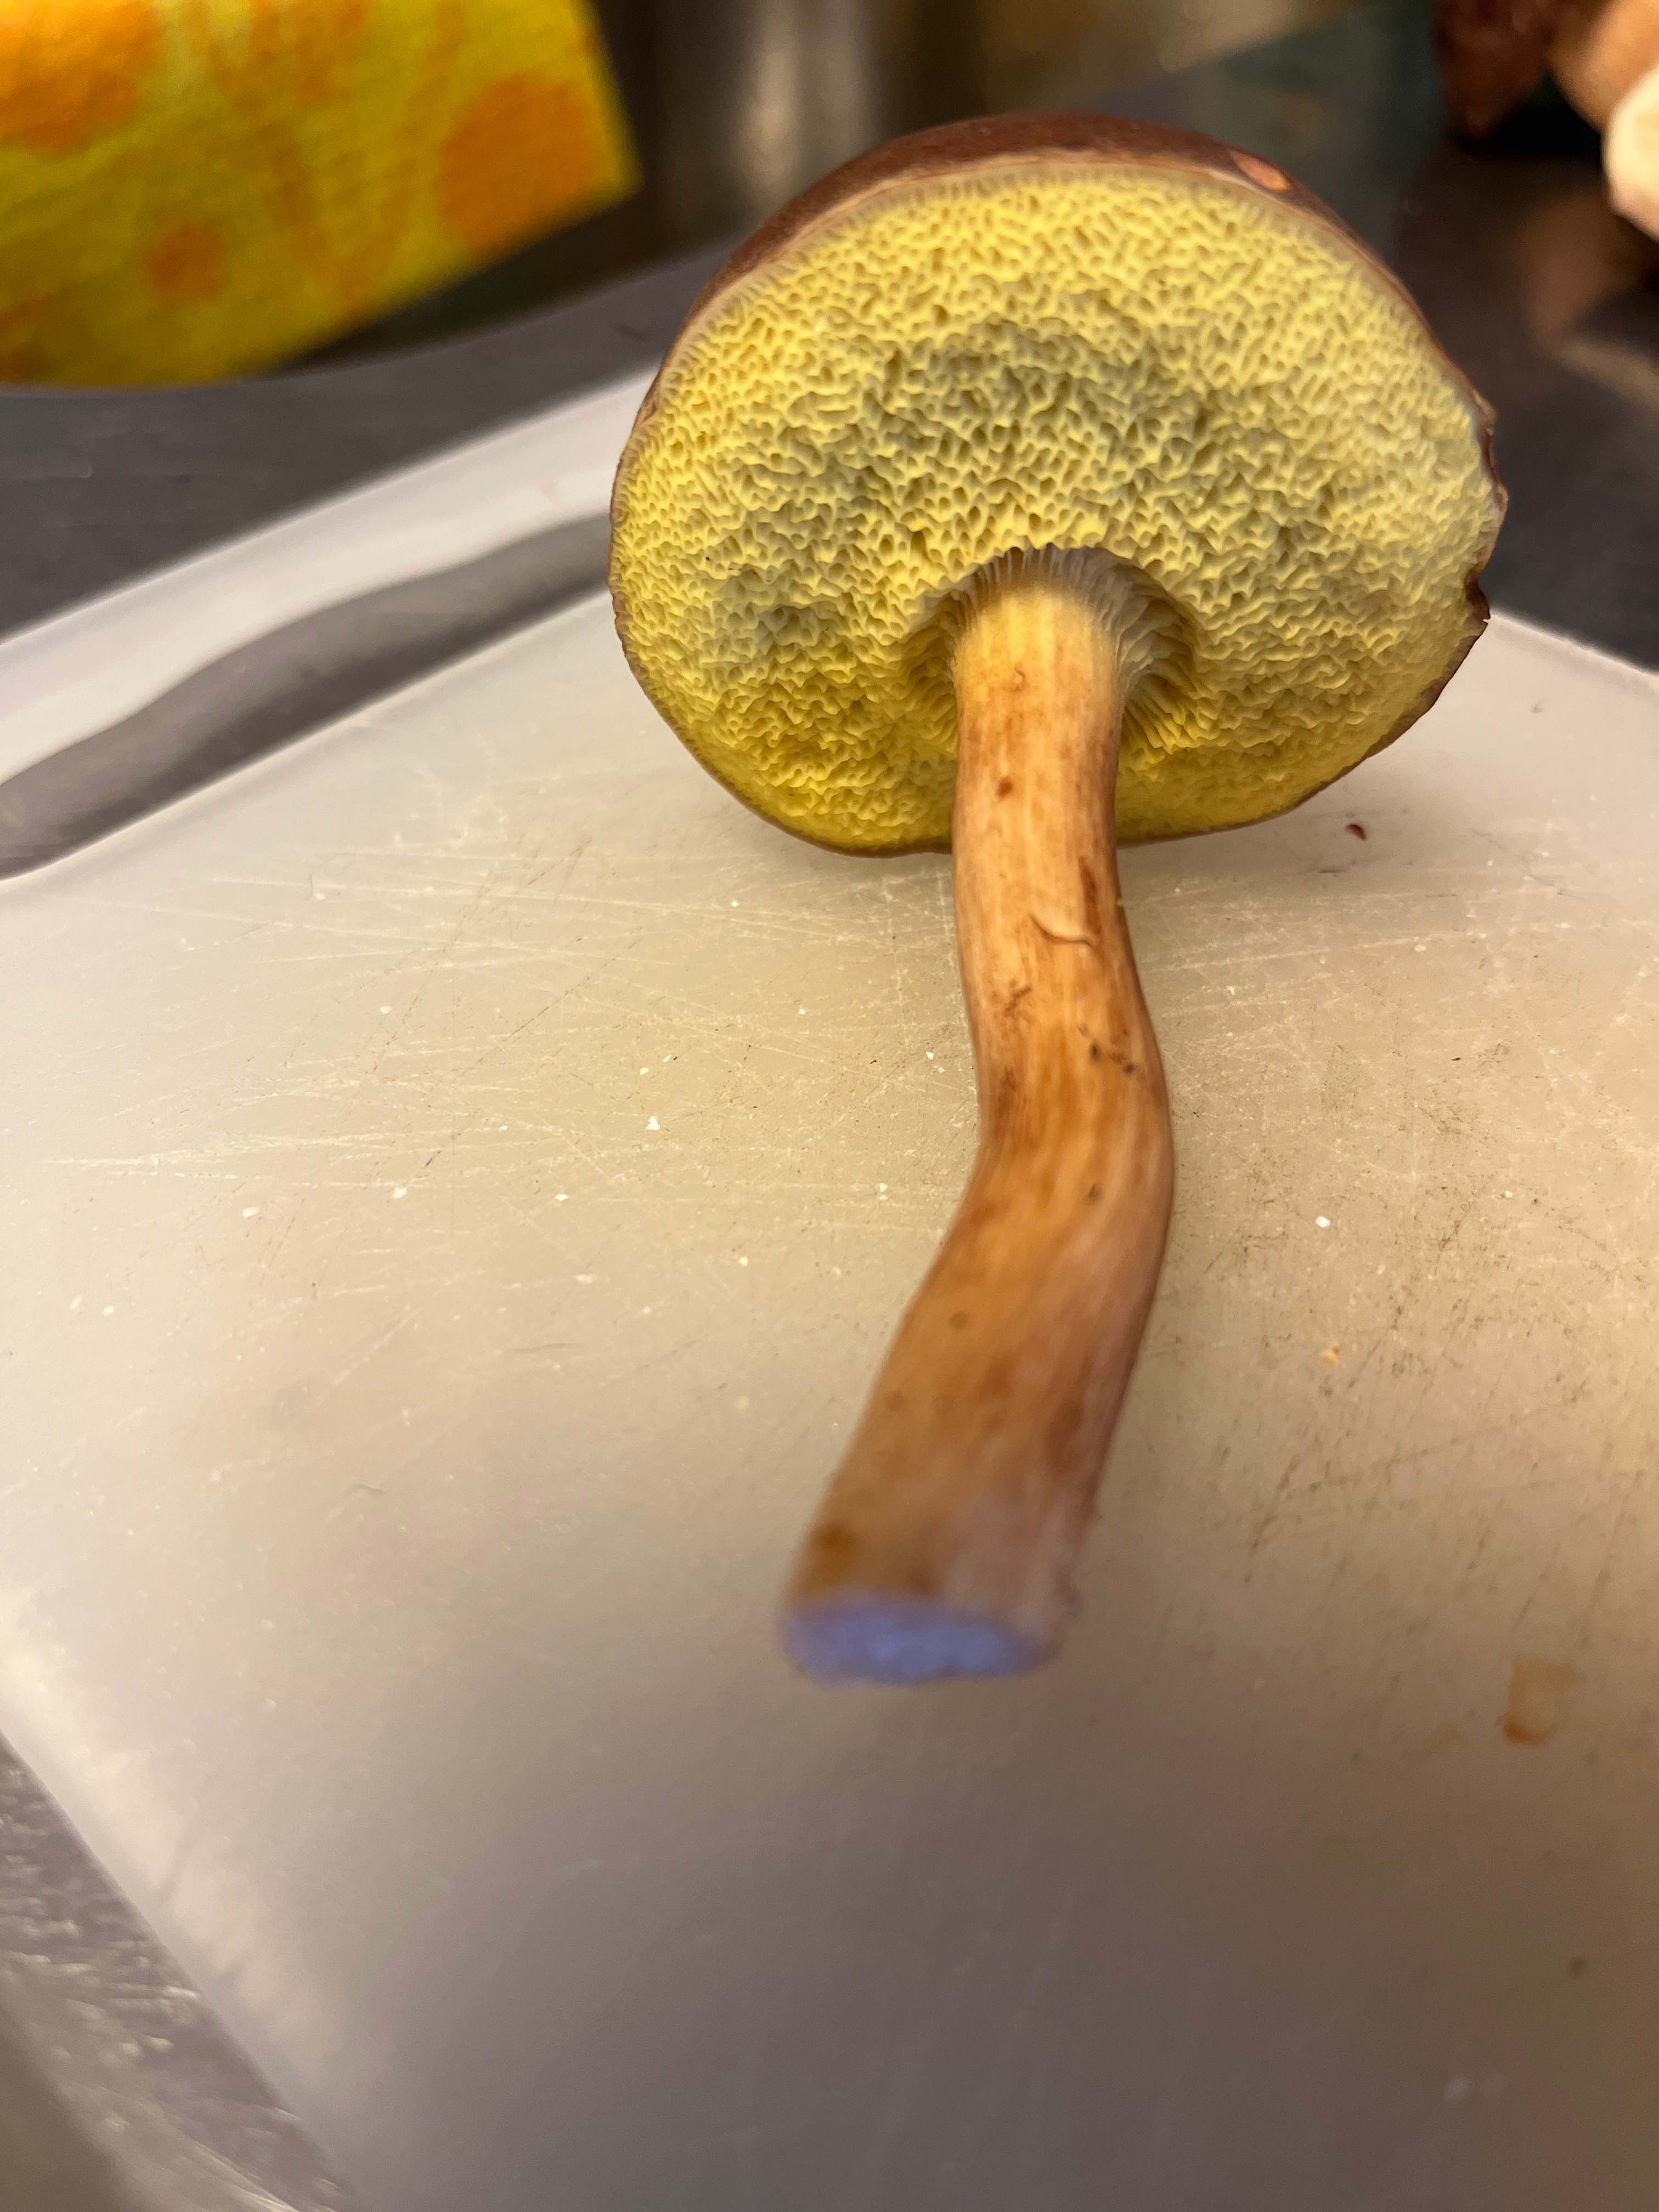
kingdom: Fungi
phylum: Basidiomycota
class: Agaricomycetes
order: Boletales
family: Boletaceae
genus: Xerocomus
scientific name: Xerocomus
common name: filtrørhat
